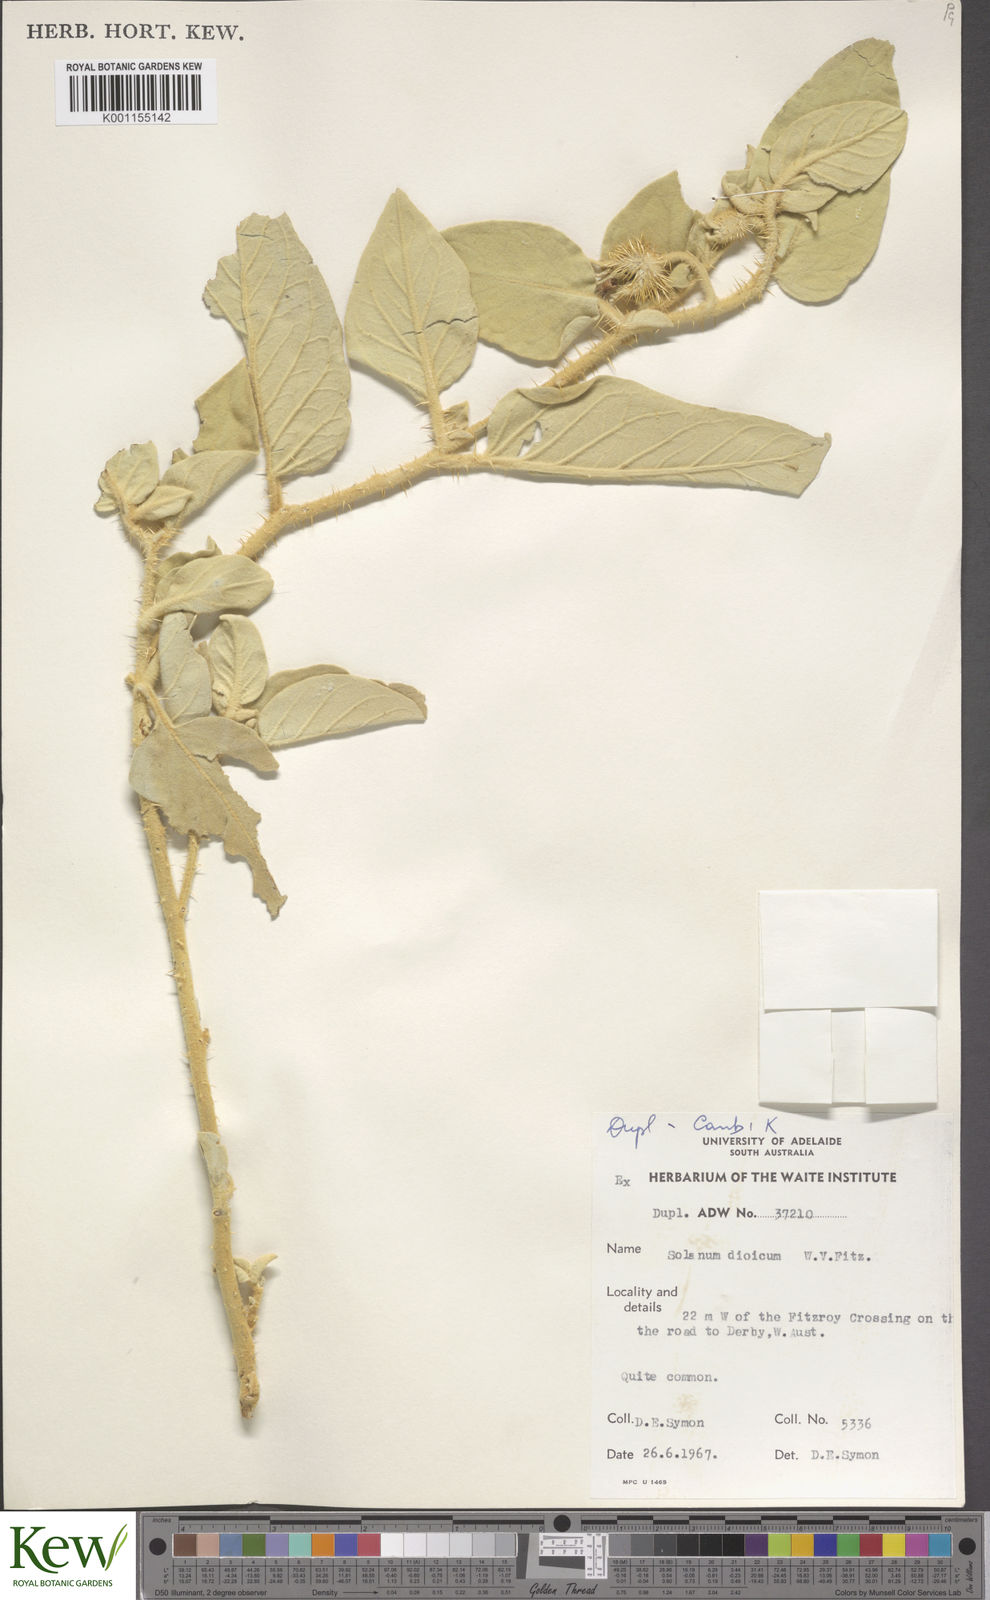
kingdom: Plantae
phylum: Tracheophyta
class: Magnoliopsida
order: Solanales
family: Solanaceae
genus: Solanum
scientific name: Solanum dioicum
